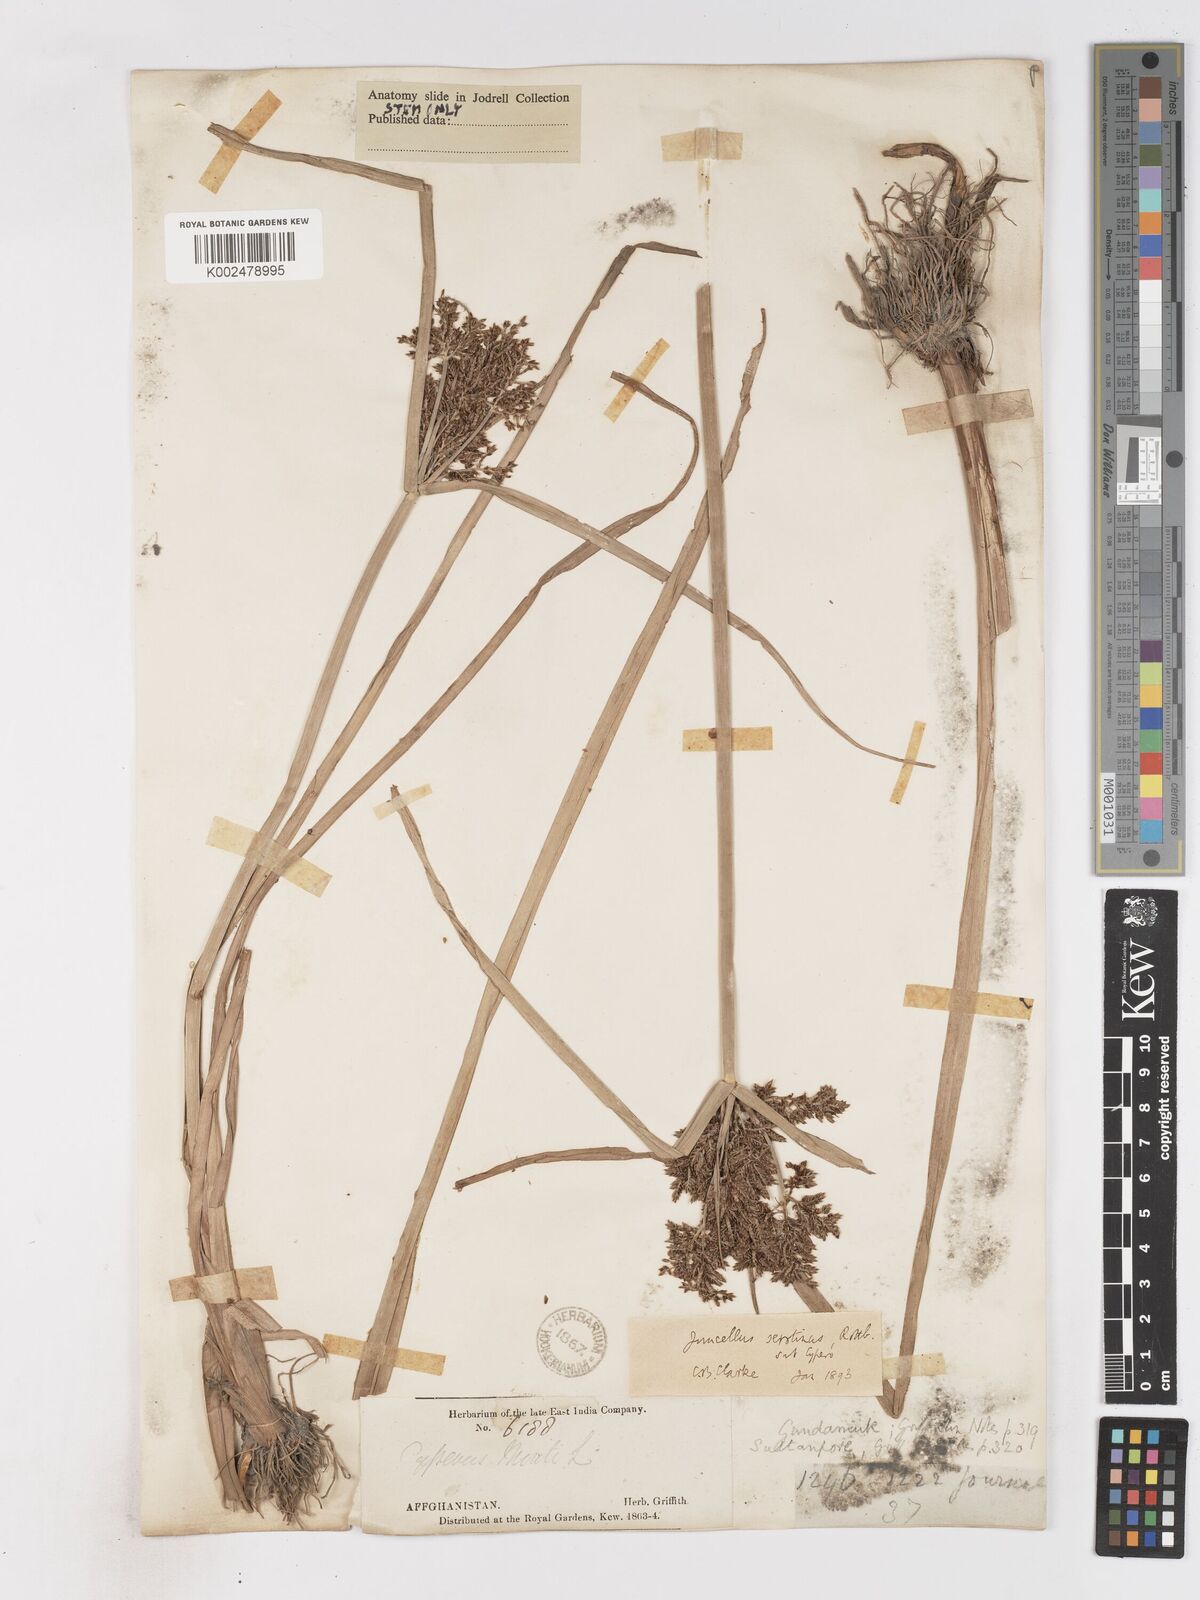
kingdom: Plantae
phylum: Tracheophyta
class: Liliopsida
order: Poales
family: Cyperaceae
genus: Cyperus
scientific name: Cyperus serotinus
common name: Tidalmarsh flatsedge
